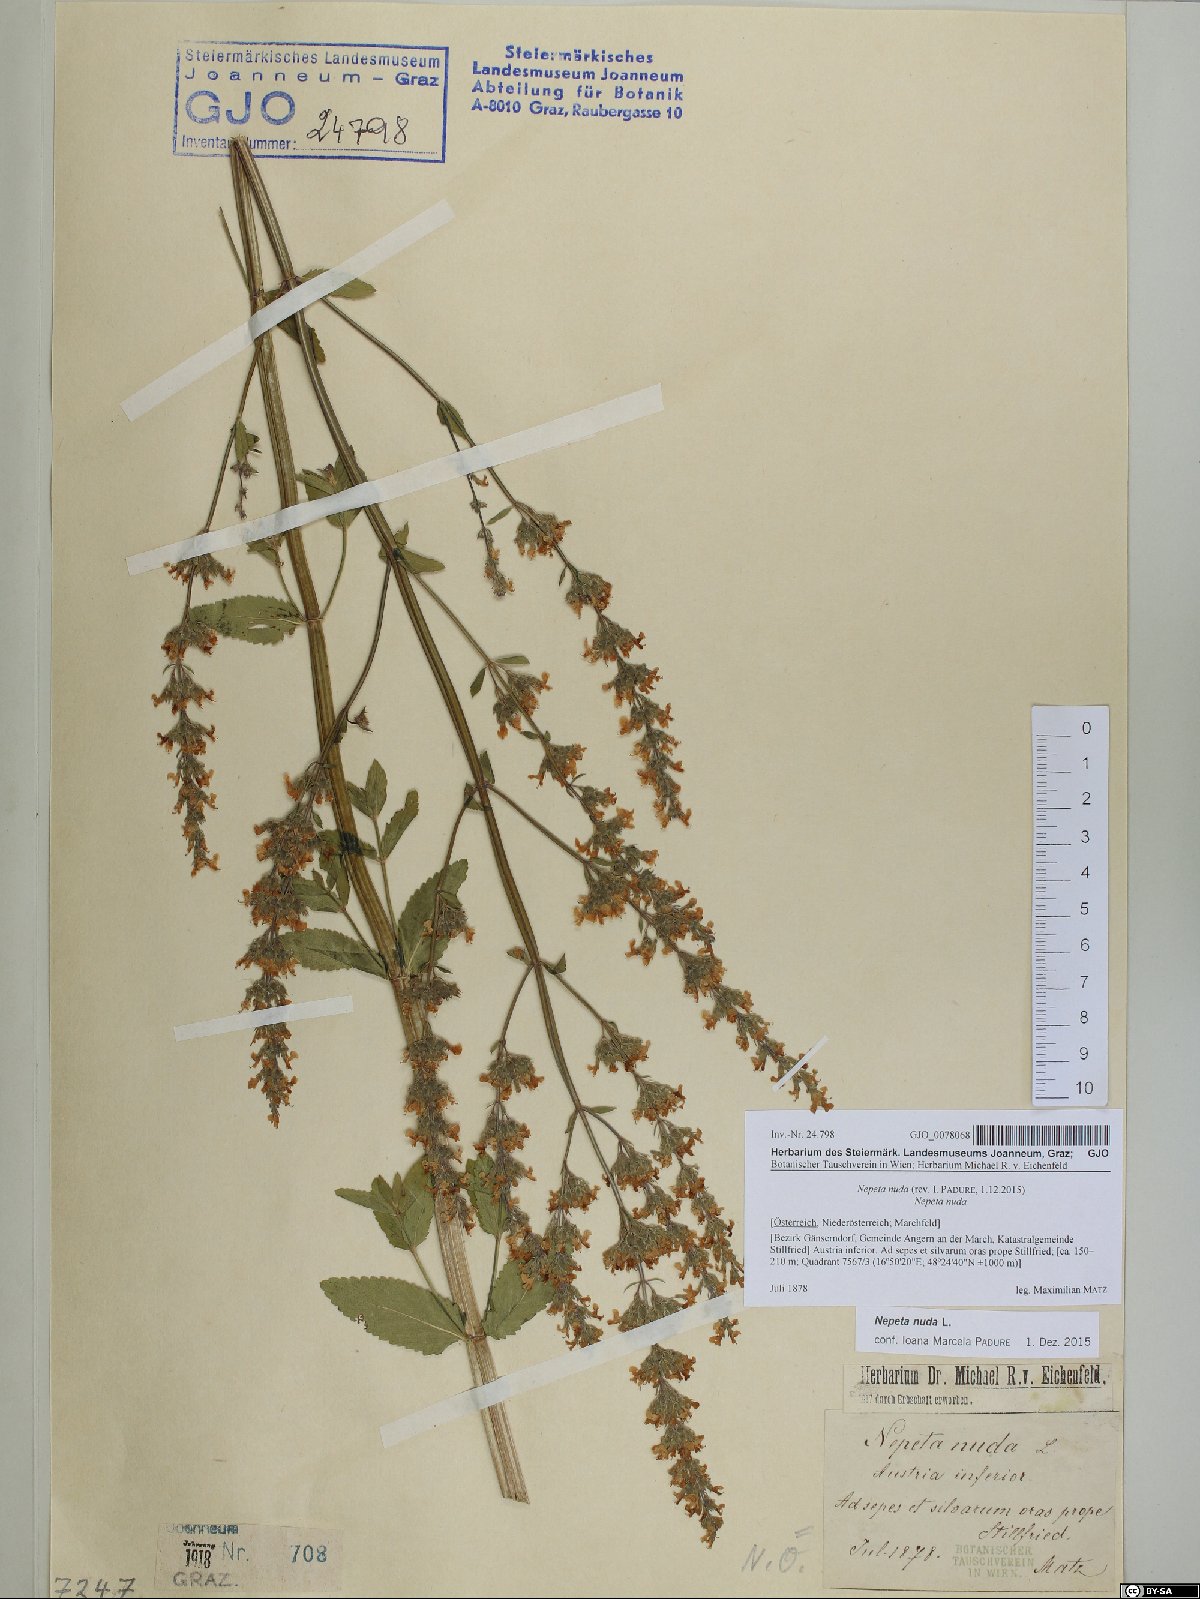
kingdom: Plantae
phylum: Tracheophyta
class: Magnoliopsida
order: Lamiales
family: Lamiaceae
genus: Nepeta
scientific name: Nepeta nuda
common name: Hairless catmint
